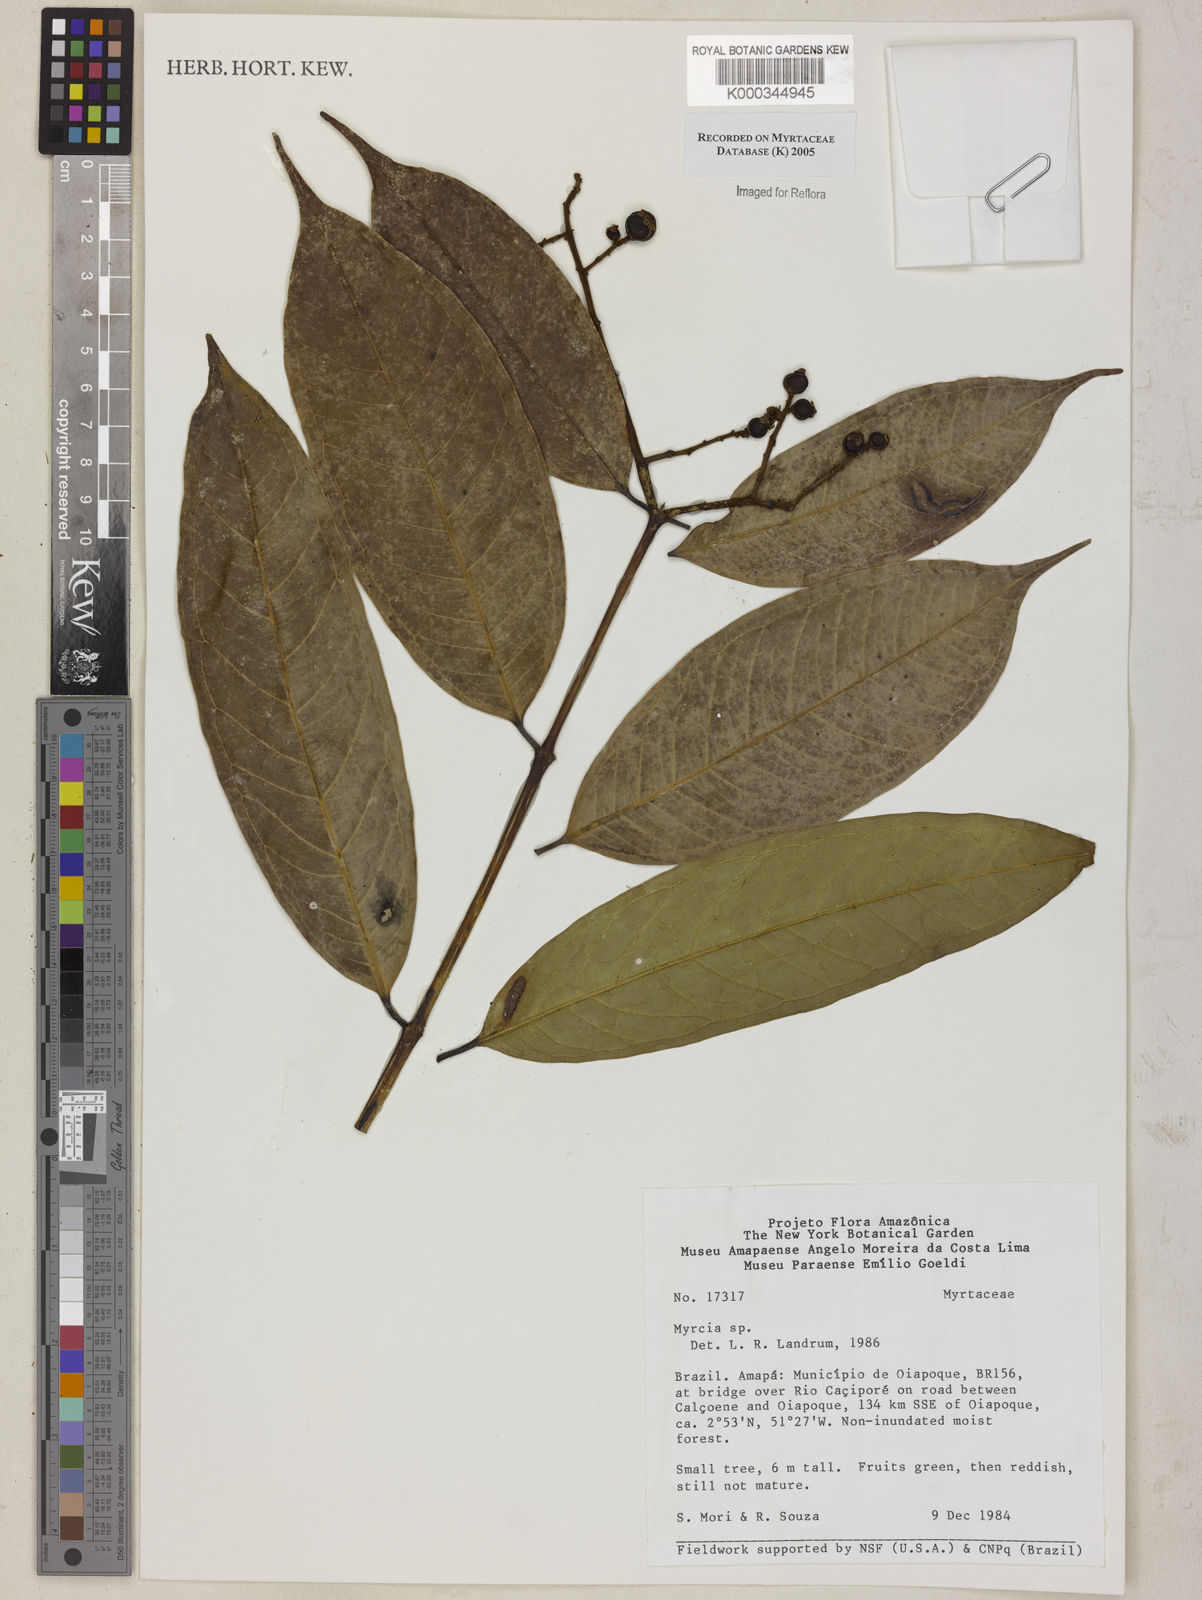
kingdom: Plantae
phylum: Tracheophyta
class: Magnoliopsida
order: Myrtales
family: Myrtaceae
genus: Myrcia
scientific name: Myrcia
